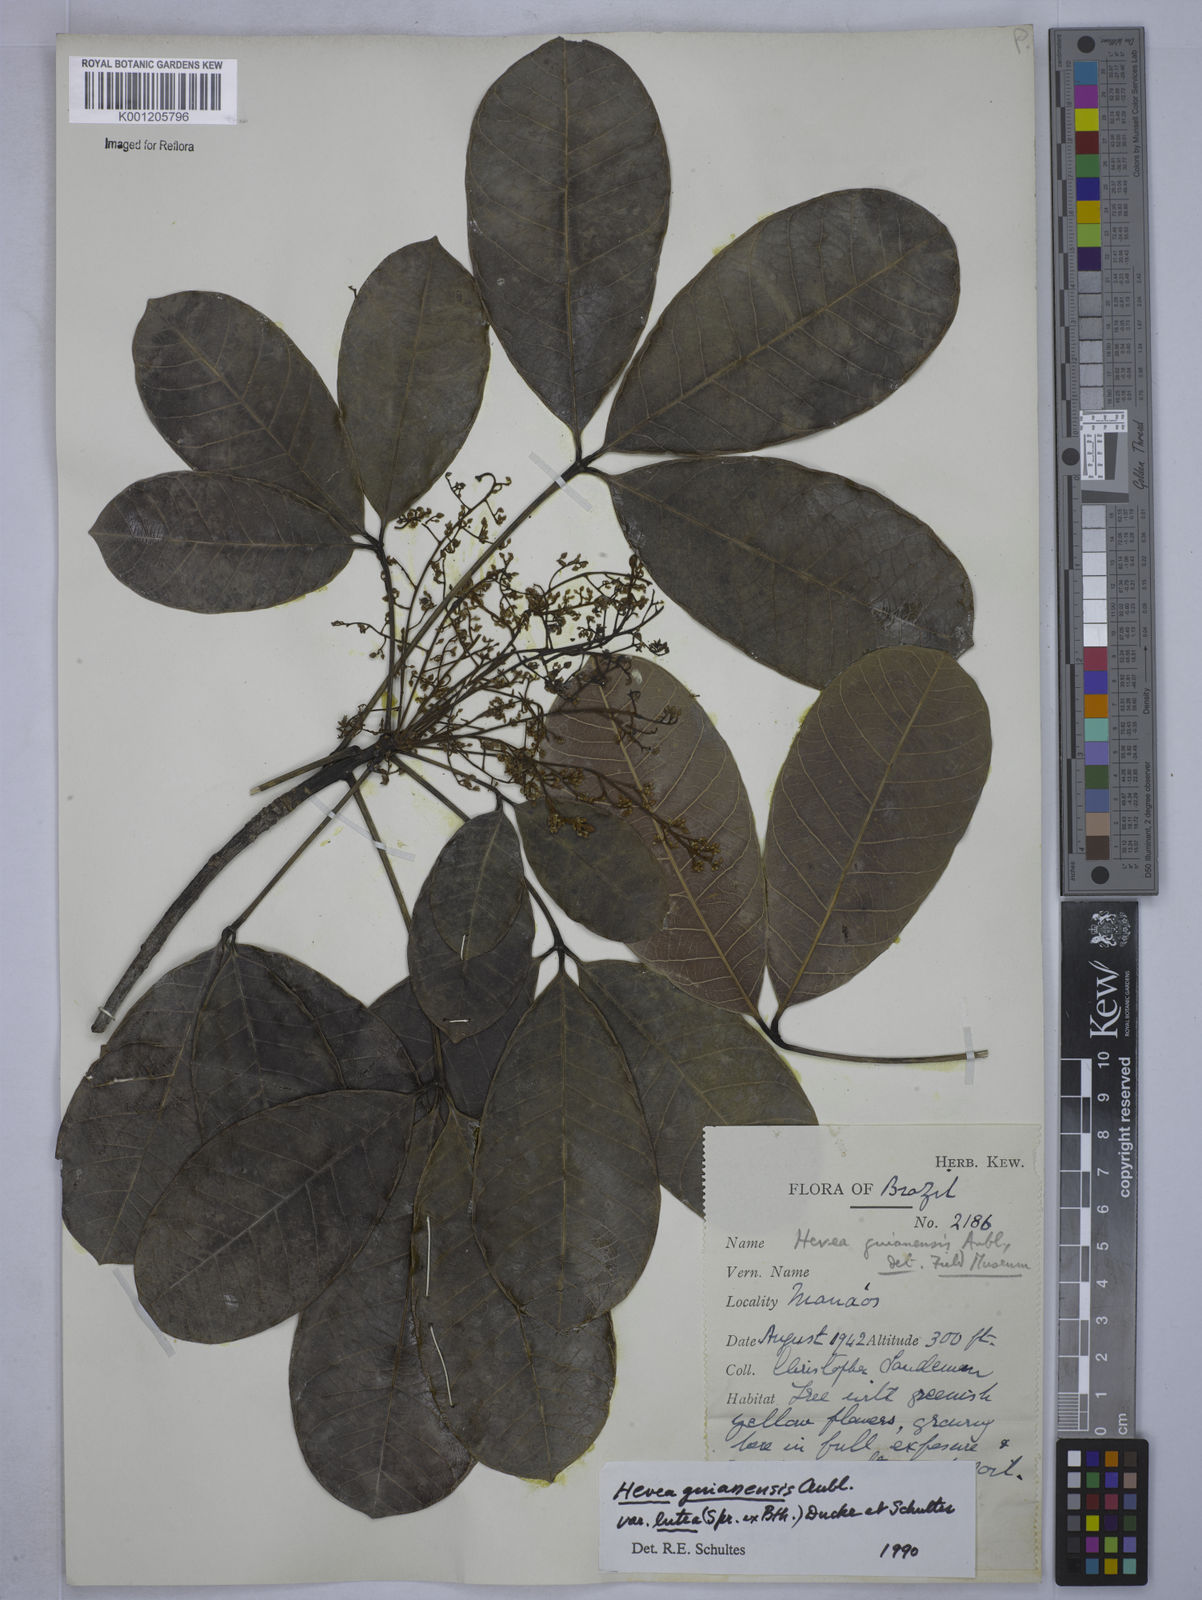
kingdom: Plantae
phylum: Tracheophyta
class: Magnoliopsida
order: Malpighiales
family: Euphorbiaceae
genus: Hevea
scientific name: Hevea guianensis
